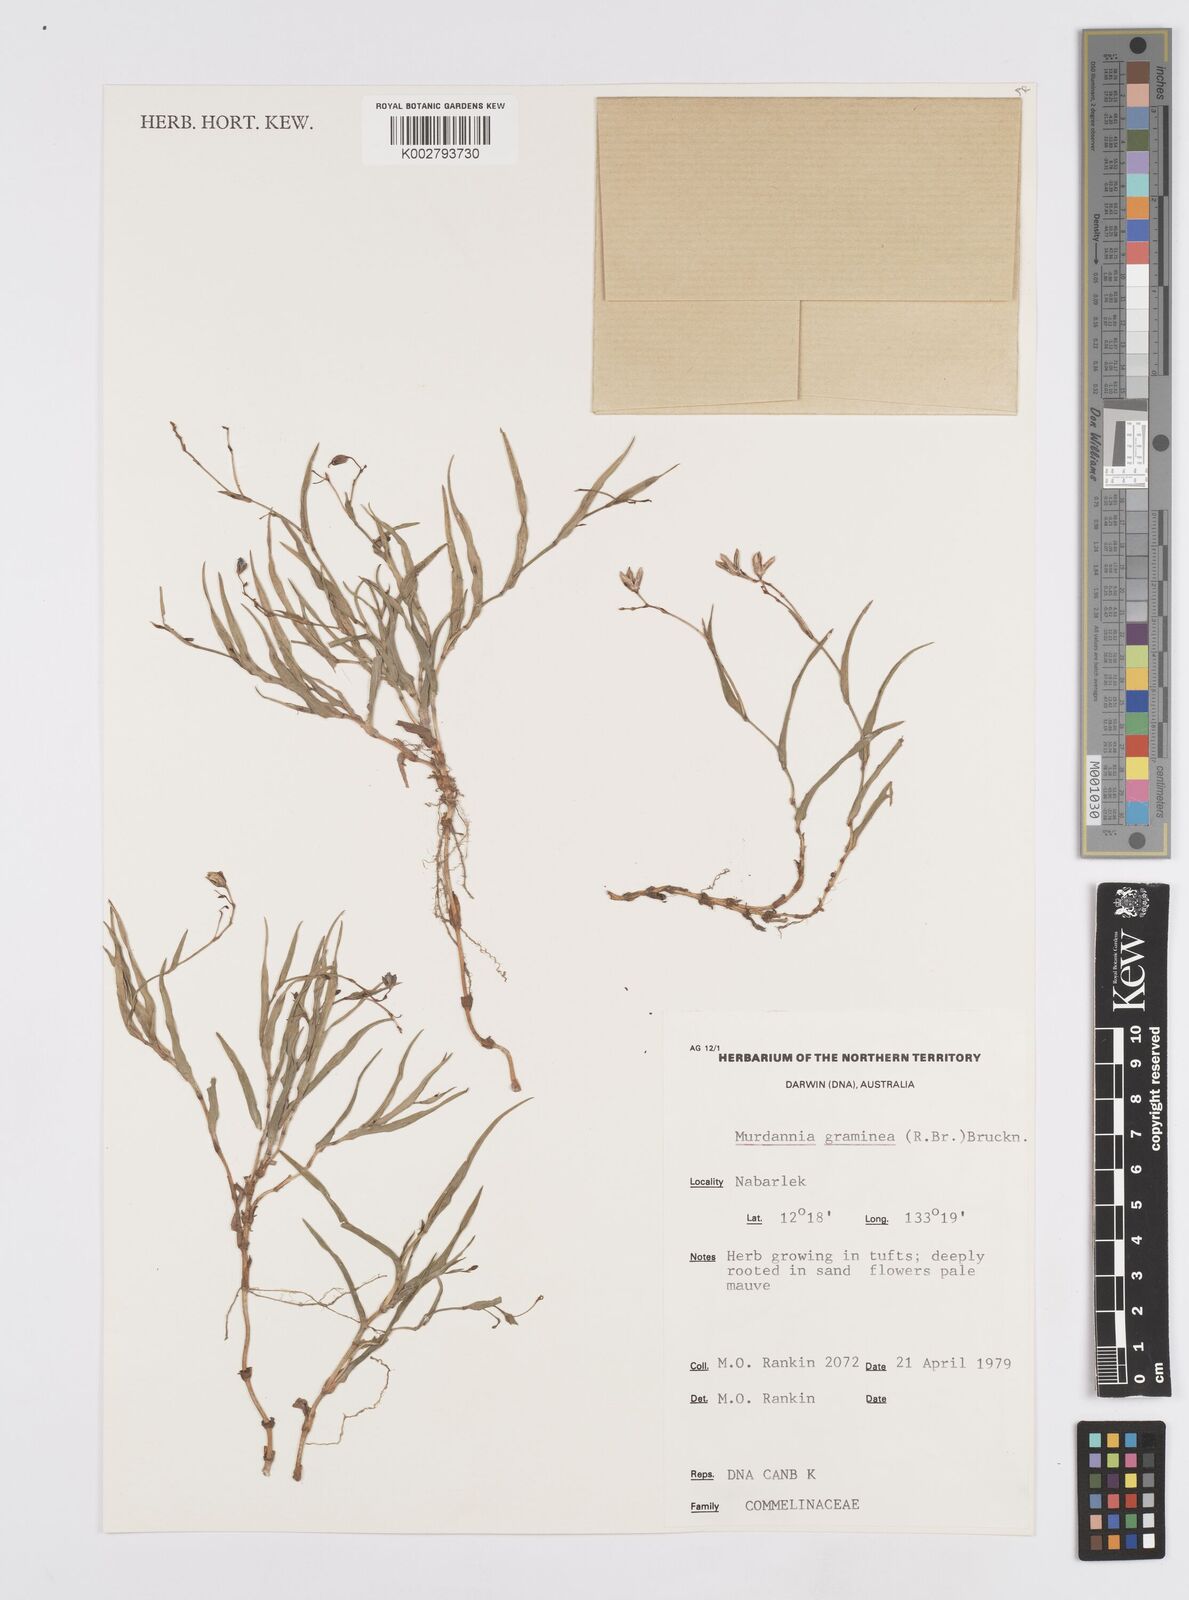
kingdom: Plantae
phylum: Tracheophyta
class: Liliopsida
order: Commelinales
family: Commelinaceae
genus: Murdannia
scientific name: Murdannia graminea
